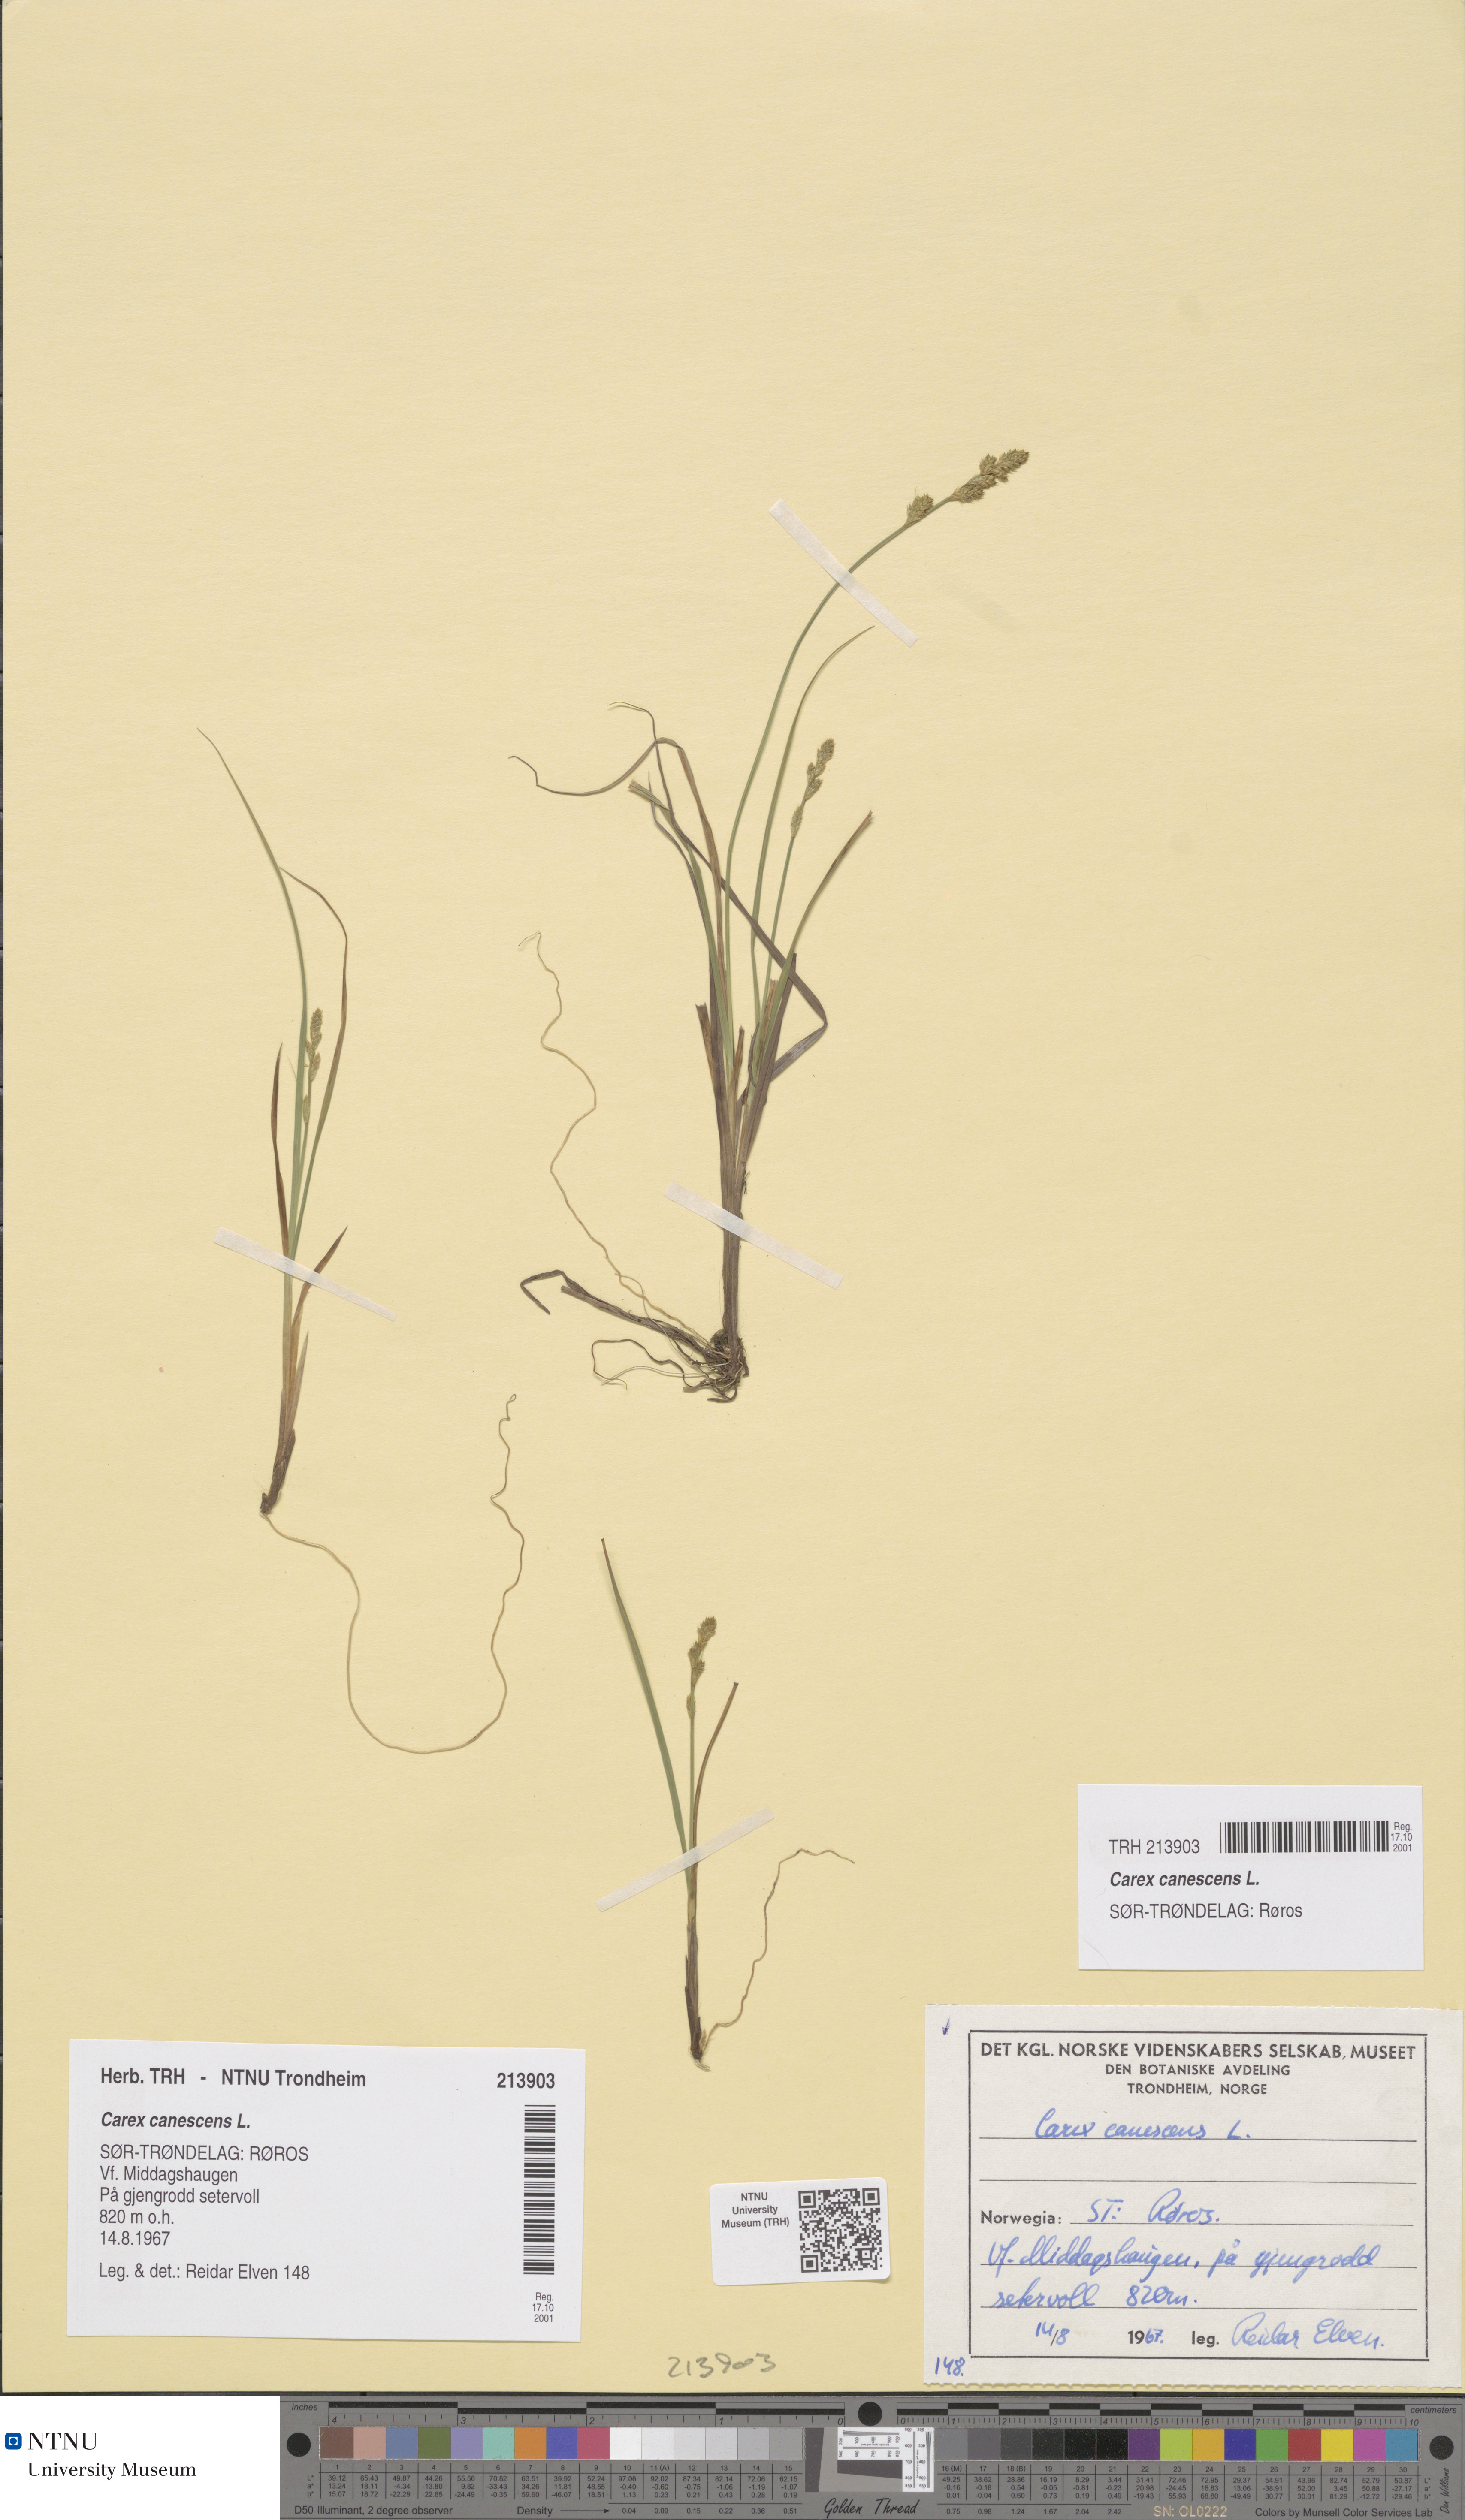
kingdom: Plantae
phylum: Tracheophyta
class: Liliopsida
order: Poales
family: Cyperaceae
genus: Carex
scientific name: Carex canescens
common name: White sedge
